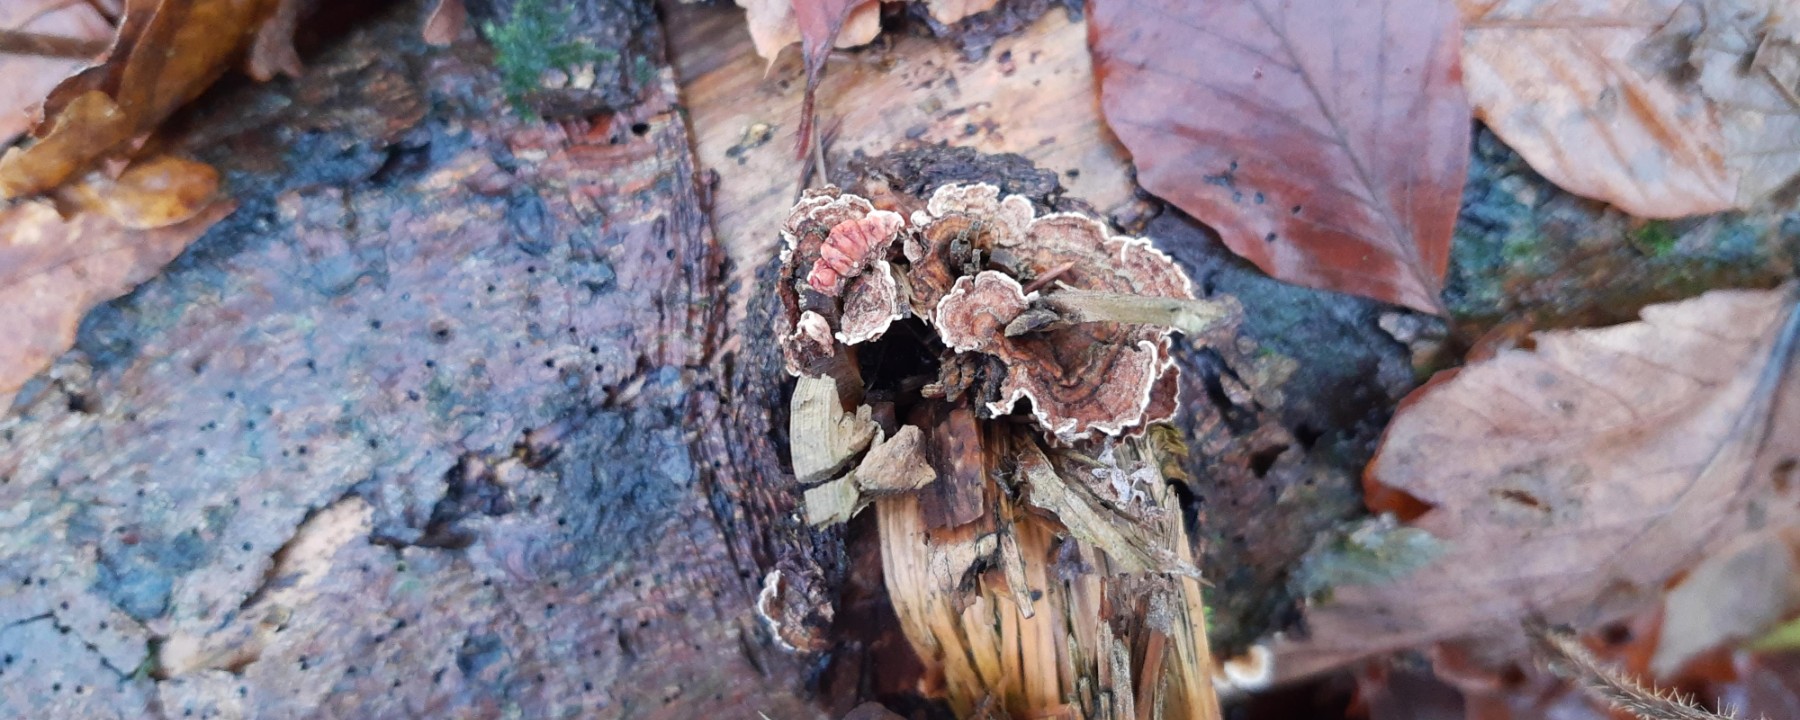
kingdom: Fungi
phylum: Basidiomycota
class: Agaricomycetes
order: Russulales
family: Stereaceae
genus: Stereum
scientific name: Stereum sanguinolentum
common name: blødende lædersvamp
